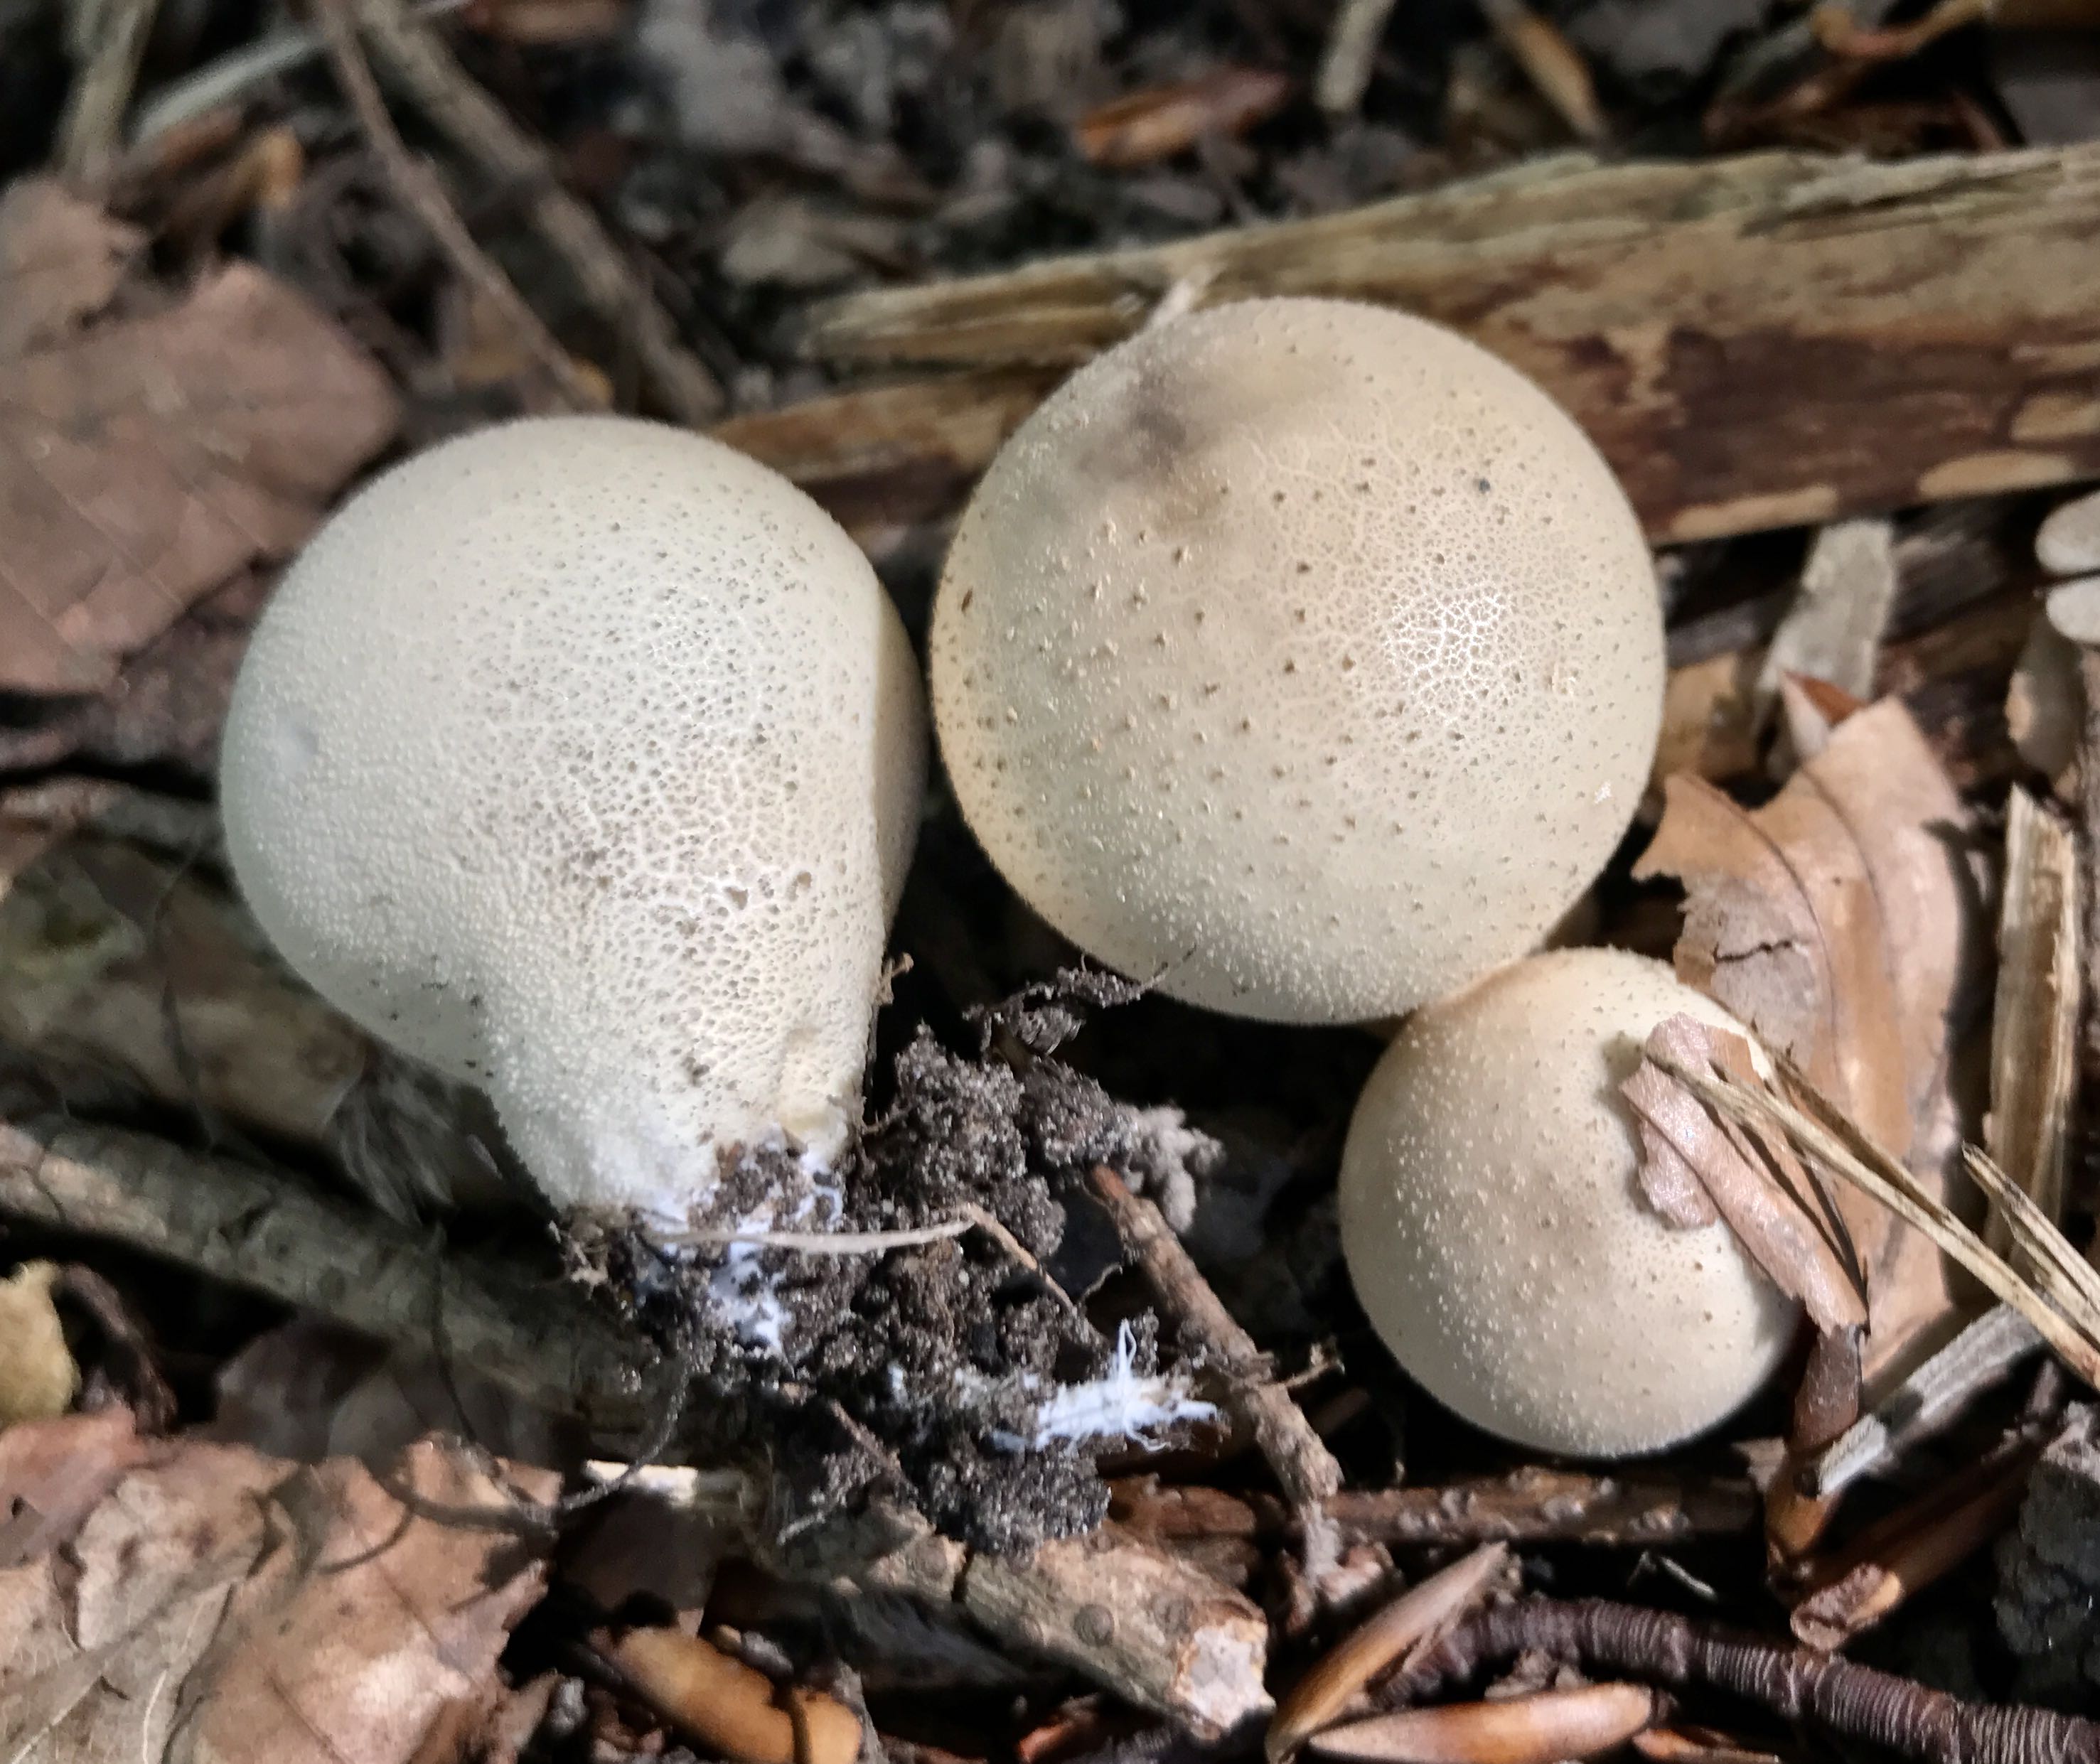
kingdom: Fungi
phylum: Basidiomycota
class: Agaricomycetes
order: Agaricales
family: Lycoperdaceae
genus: Apioperdon
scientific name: Apioperdon pyriforme
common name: pære-støvbold
